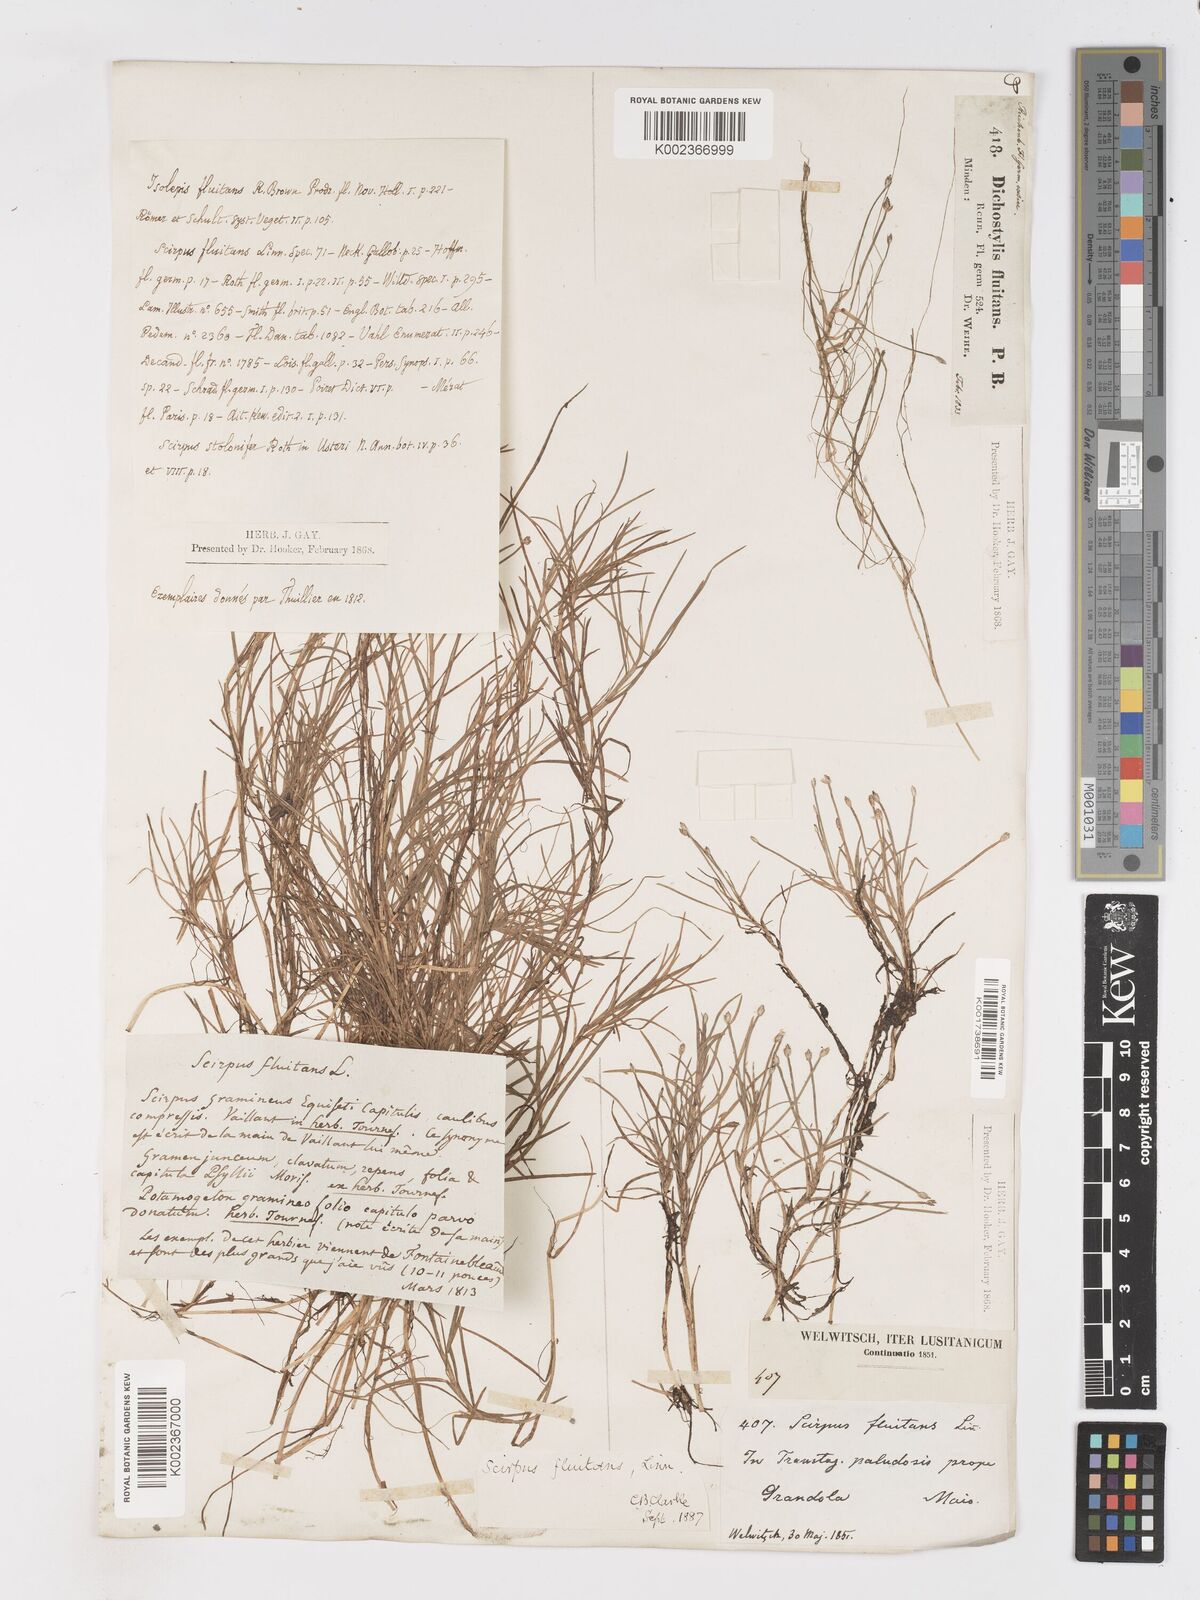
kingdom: Plantae
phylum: Tracheophyta
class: Liliopsida
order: Poales
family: Cyperaceae
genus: Isolepis
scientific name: Isolepis fluitans
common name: Floating club-rush
